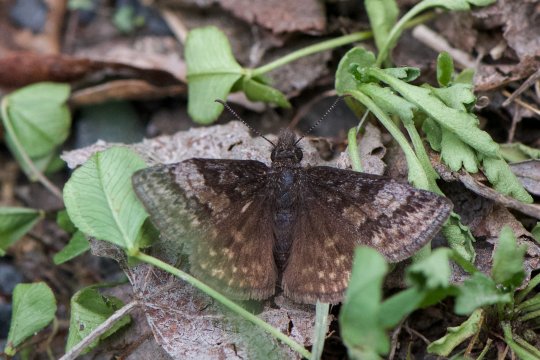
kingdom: Animalia
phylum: Arthropoda
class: Insecta
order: Lepidoptera
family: Hesperiidae
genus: Erynnis
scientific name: Erynnis icelus
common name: Dreamy Duskywing
